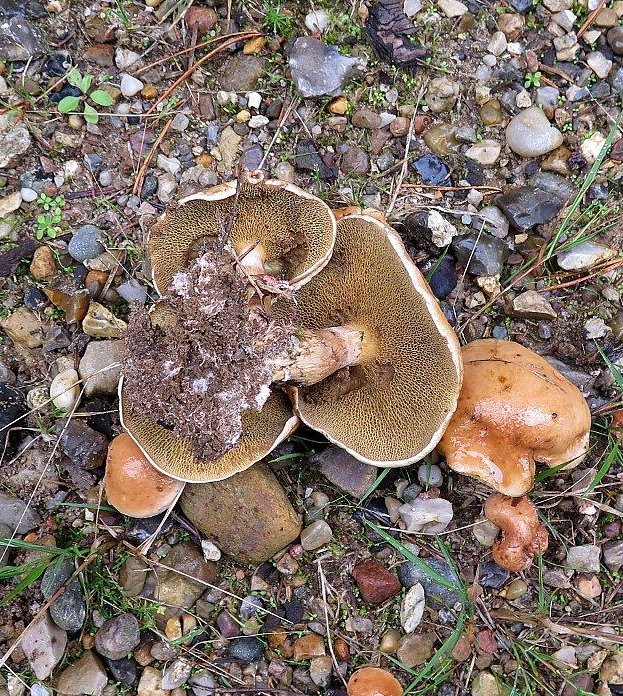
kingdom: Fungi
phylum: Basidiomycota
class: Agaricomycetes
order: Boletales
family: Suillaceae
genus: Suillus
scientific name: Suillus luteus
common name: brungul slimrørhat
